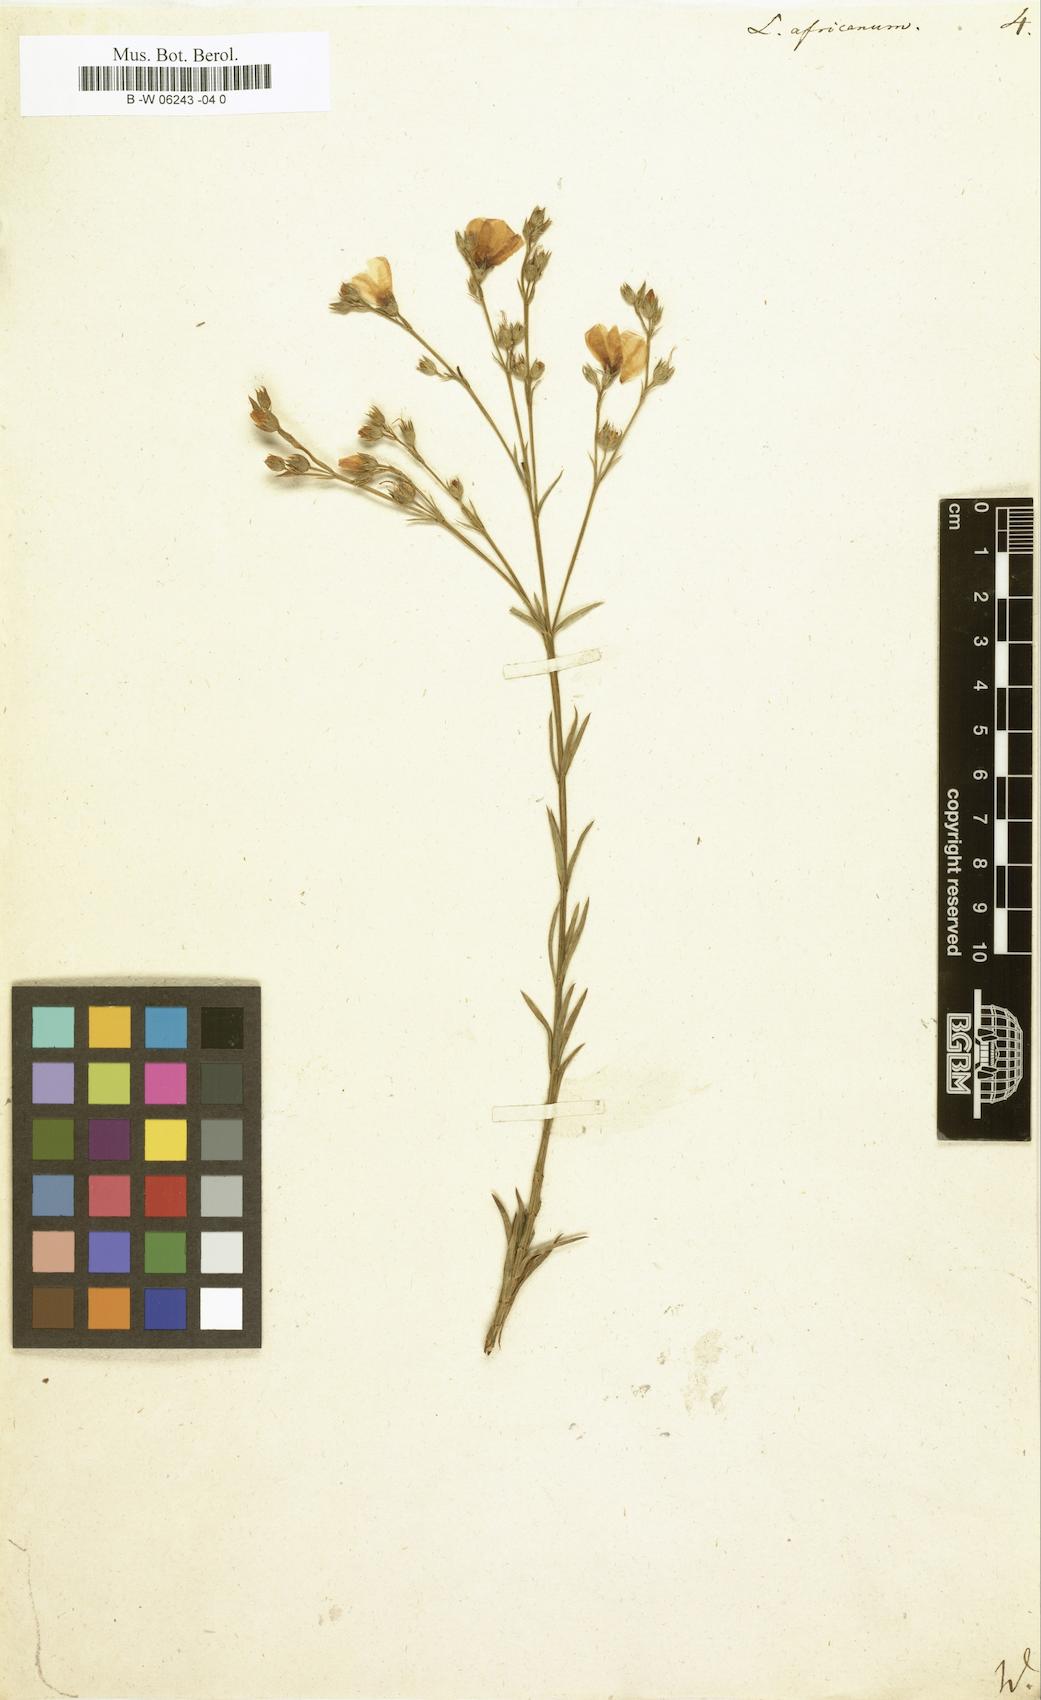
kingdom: Plantae
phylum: Tracheophyta
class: Magnoliopsida
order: Malpighiales
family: Linaceae
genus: Linum
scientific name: Linum africanum
